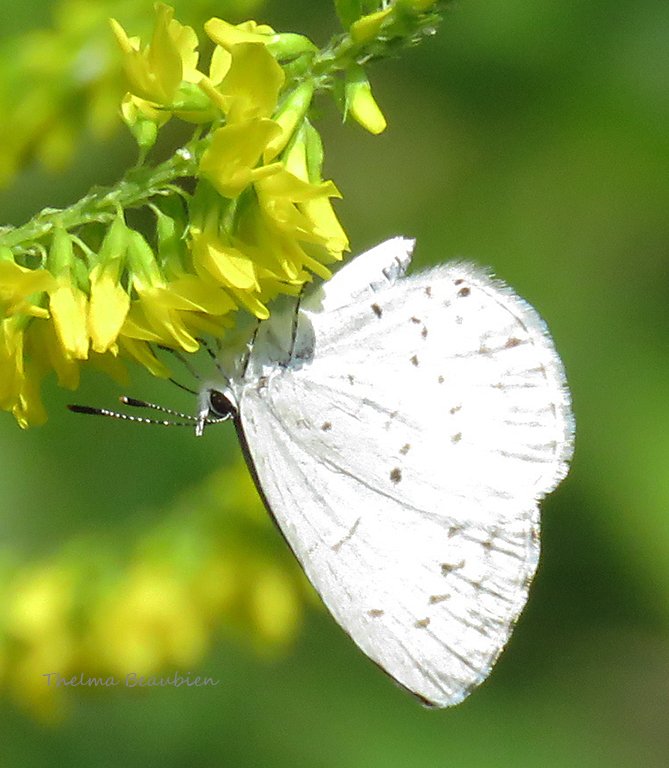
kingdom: Animalia
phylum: Arthropoda
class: Insecta
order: Lepidoptera
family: Lycaenidae
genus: Celastrina
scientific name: Celastrina
